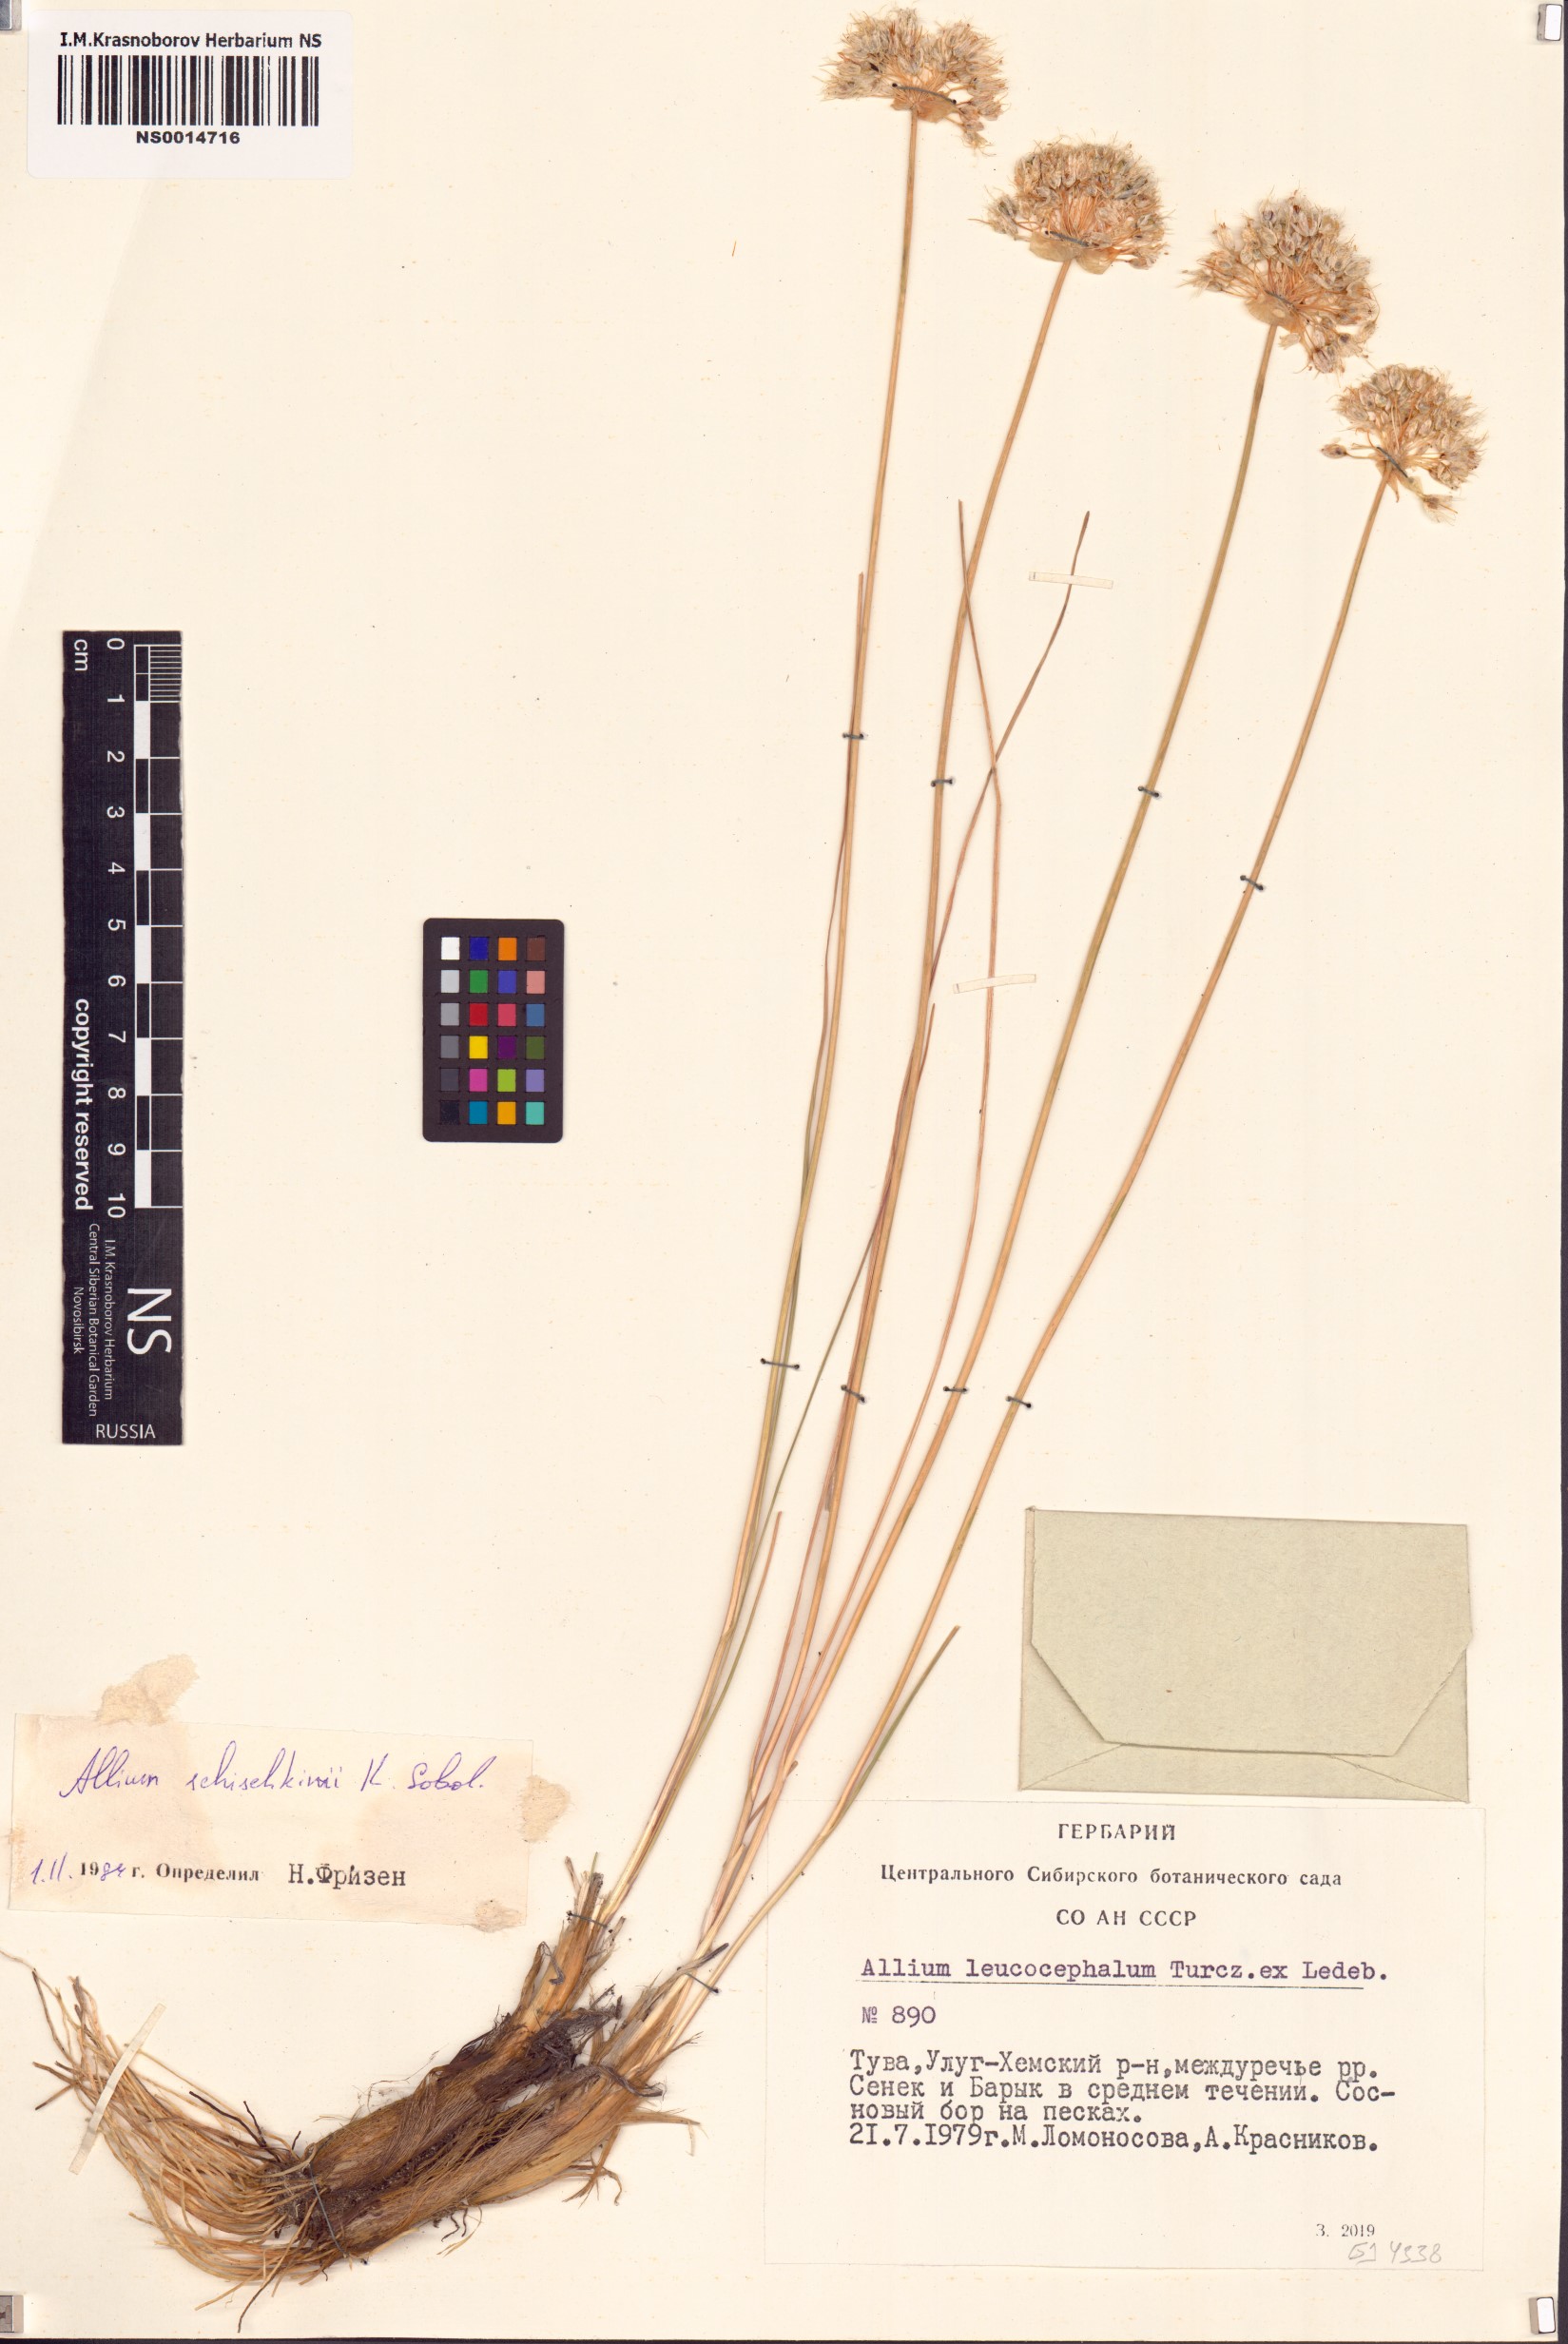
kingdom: Plantae
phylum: Tracheophyta
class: Liliopsida
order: Asparagales
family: Amaryllidaceae
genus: Allium
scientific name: Allium schischkinii
